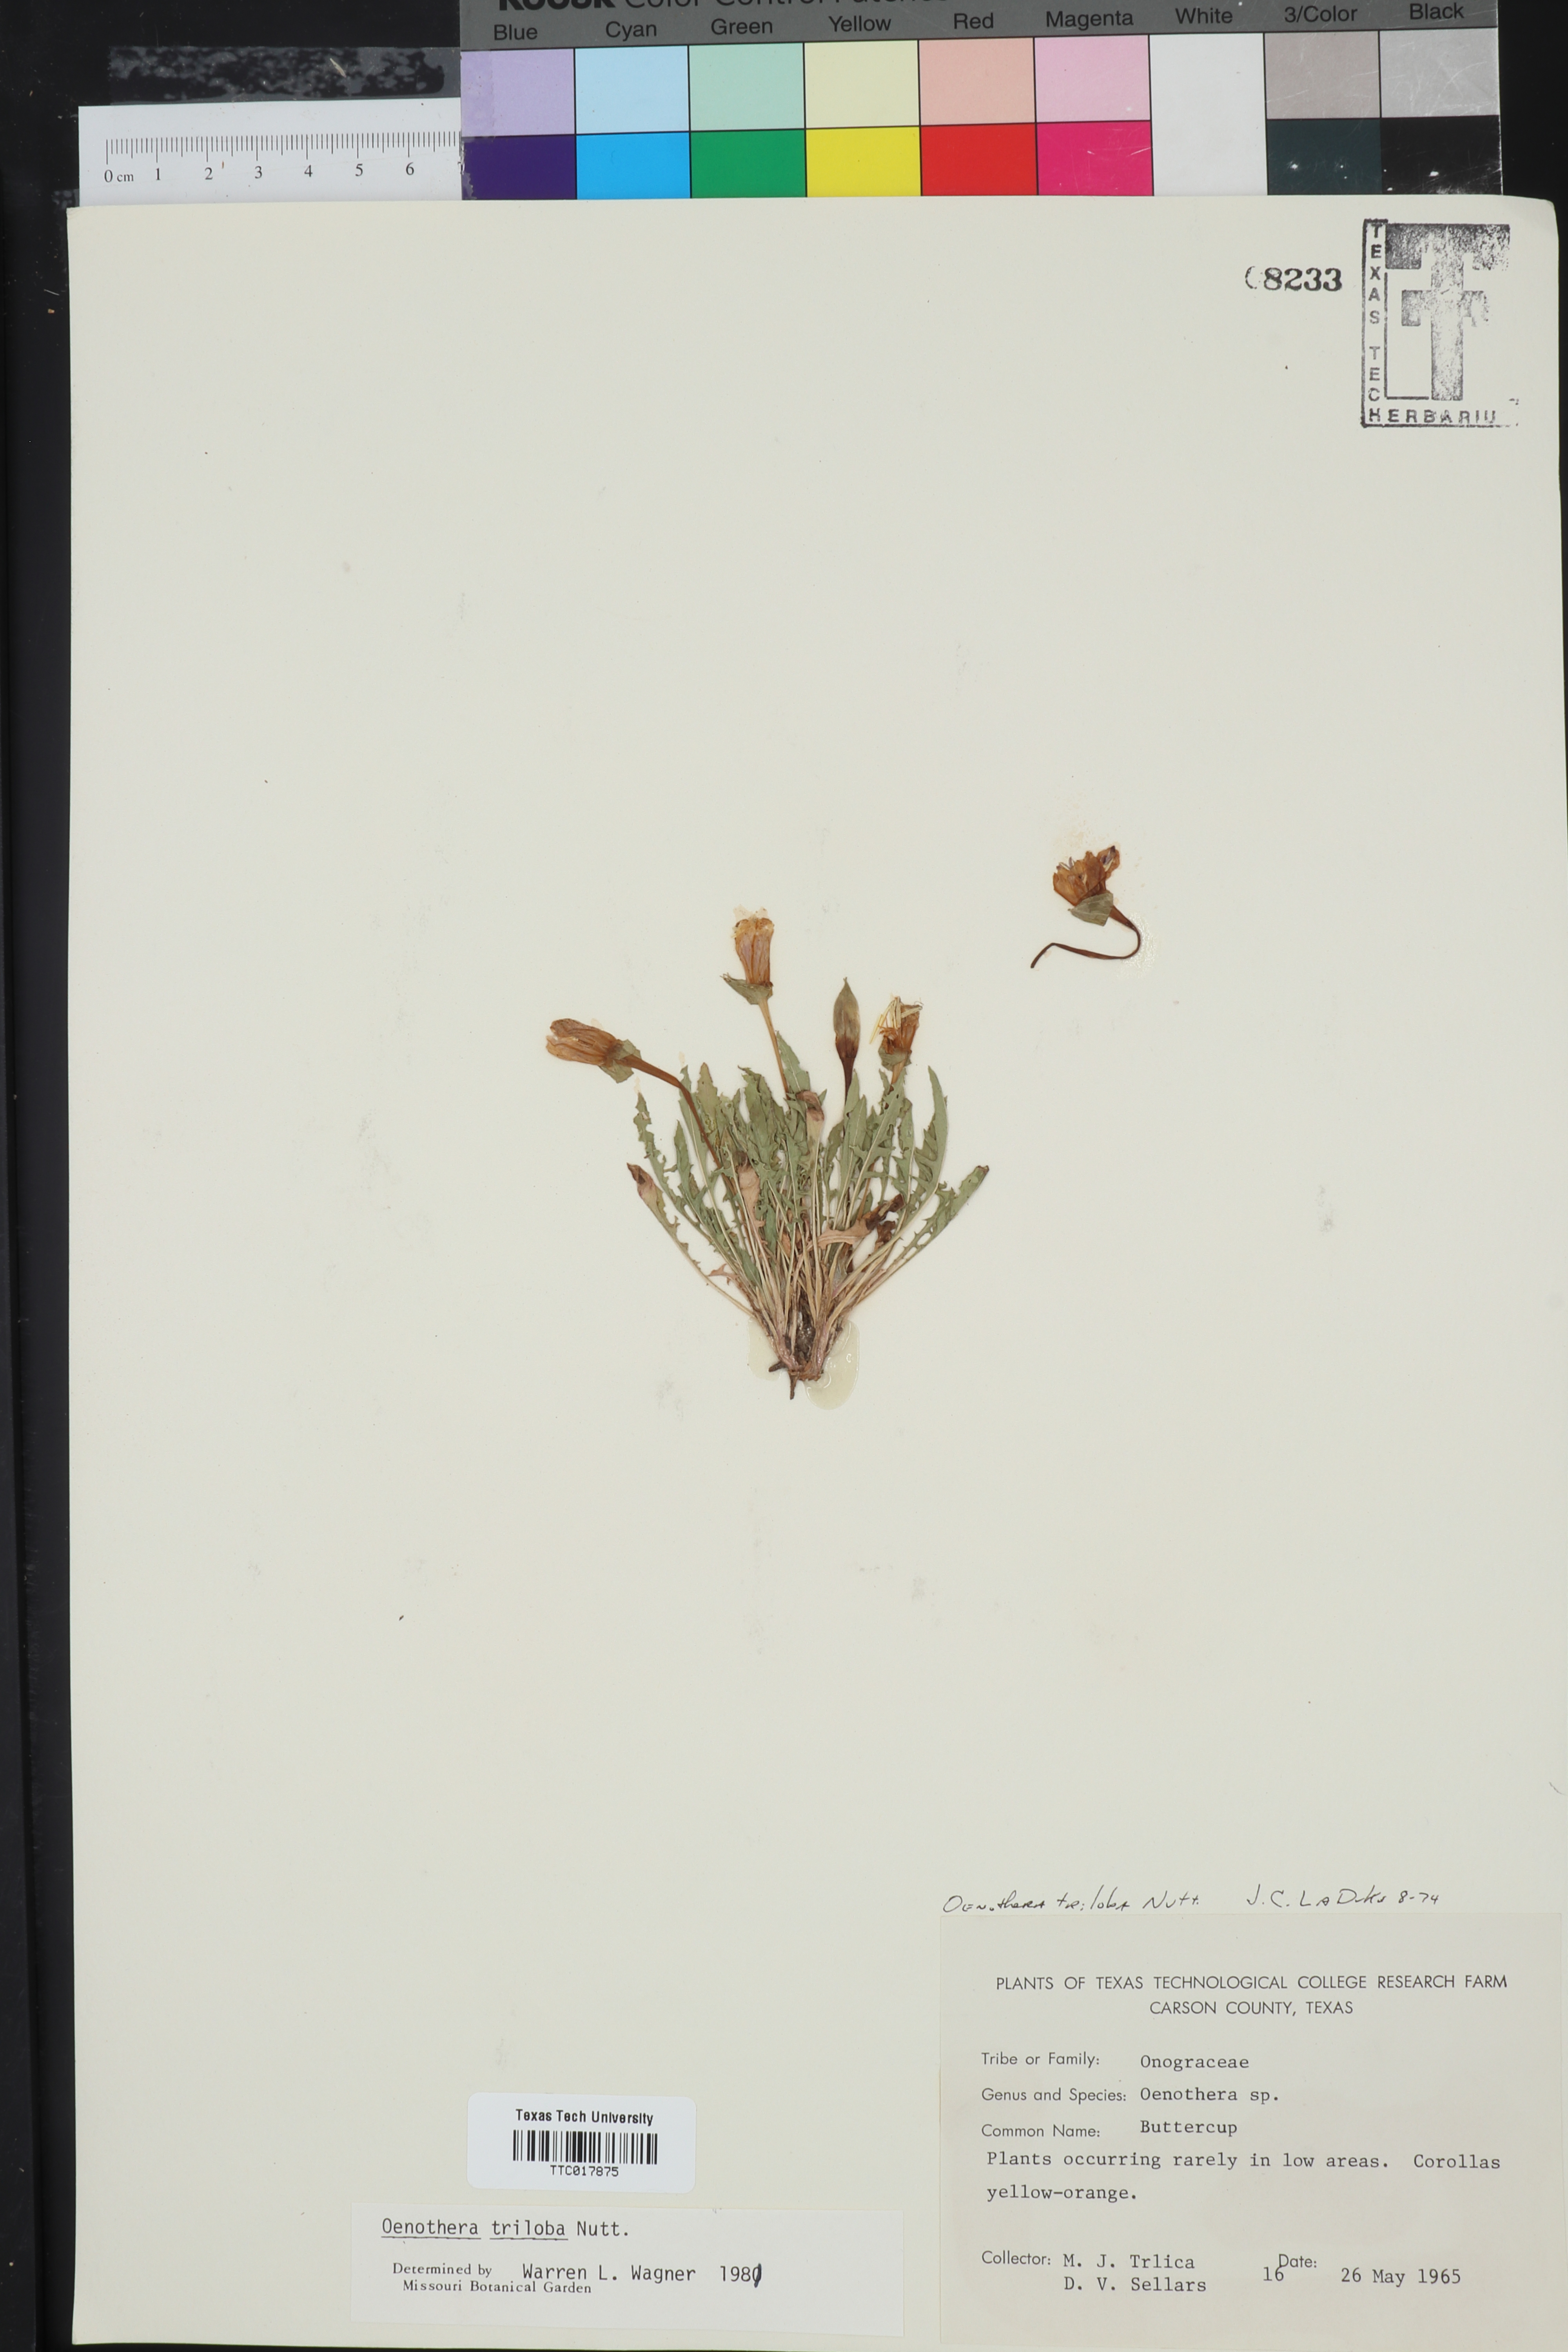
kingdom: Plantae
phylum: Tracheophyta
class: Magnoliopsida
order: Myrtales
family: Onagraceae
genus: Oenothera
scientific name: Oenothera triloba
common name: Sessile evening-primrose
